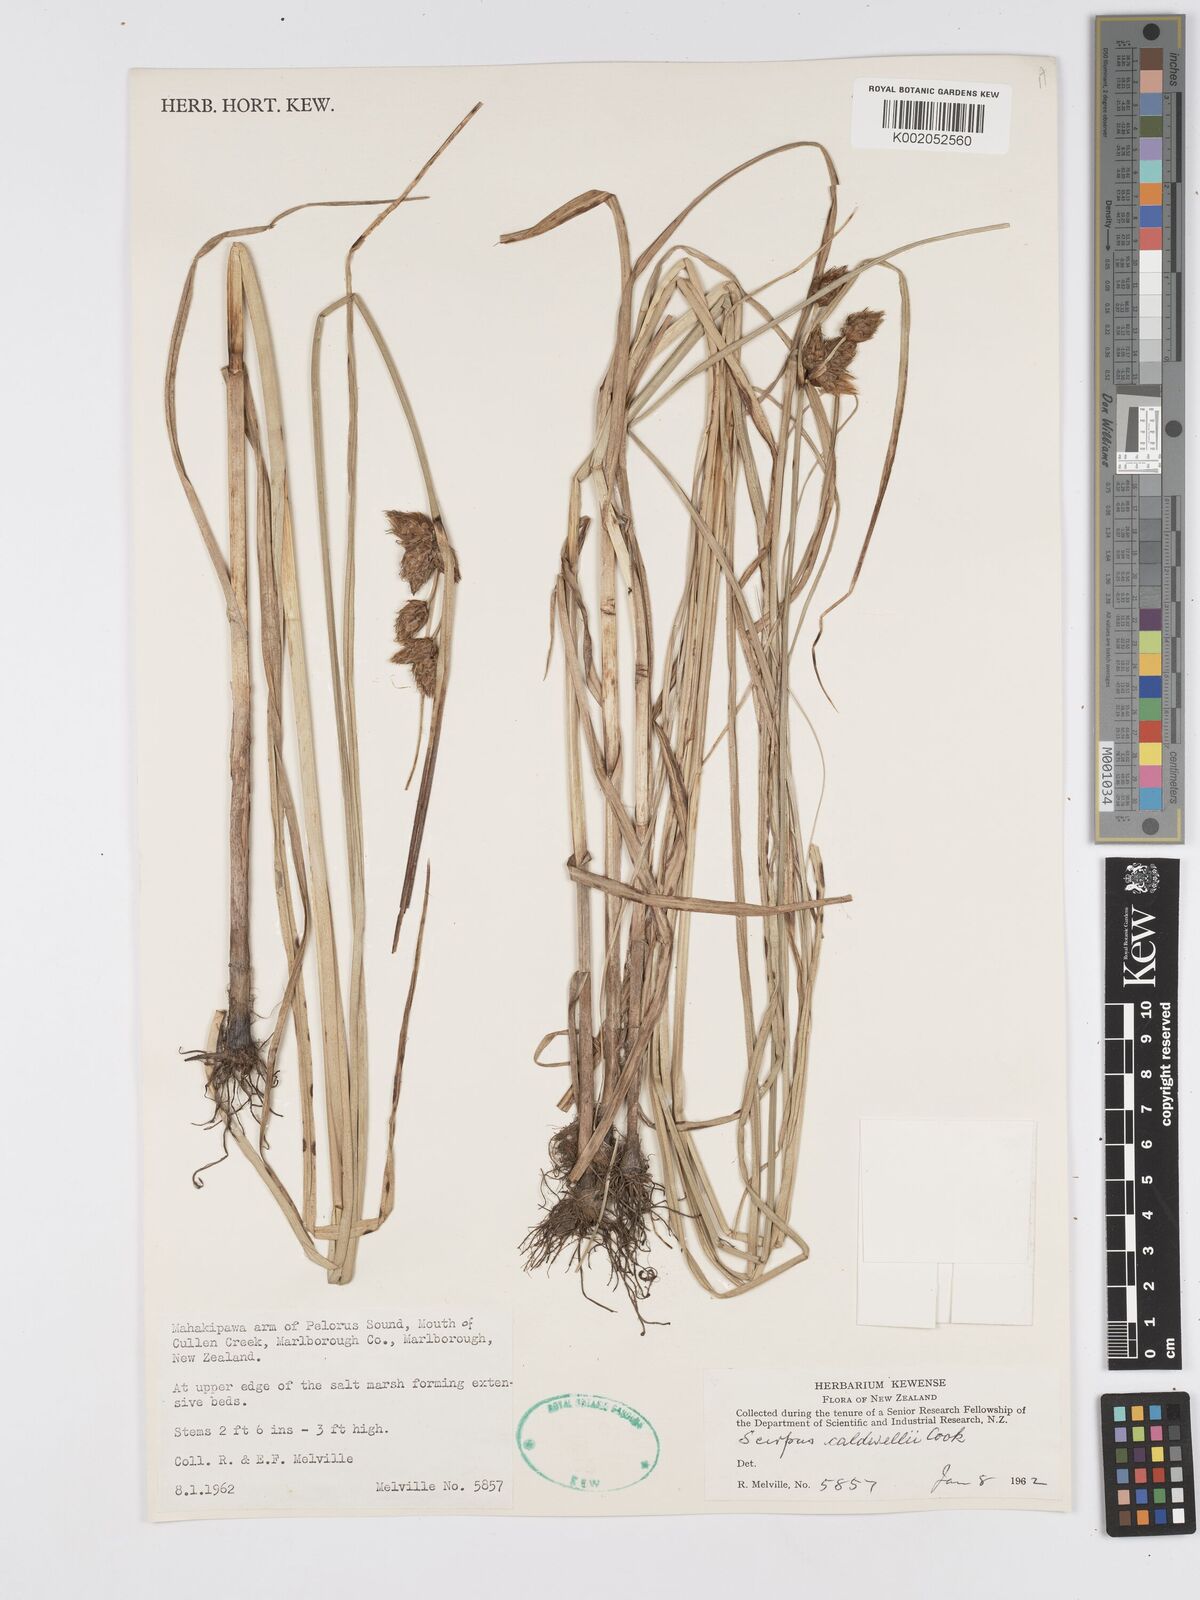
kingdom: Plantae
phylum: Tracheophyta
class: Liliopsida
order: Poales
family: Cyperaceae
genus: Bolboschoenus
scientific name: Bolboschoenus caldwellii
